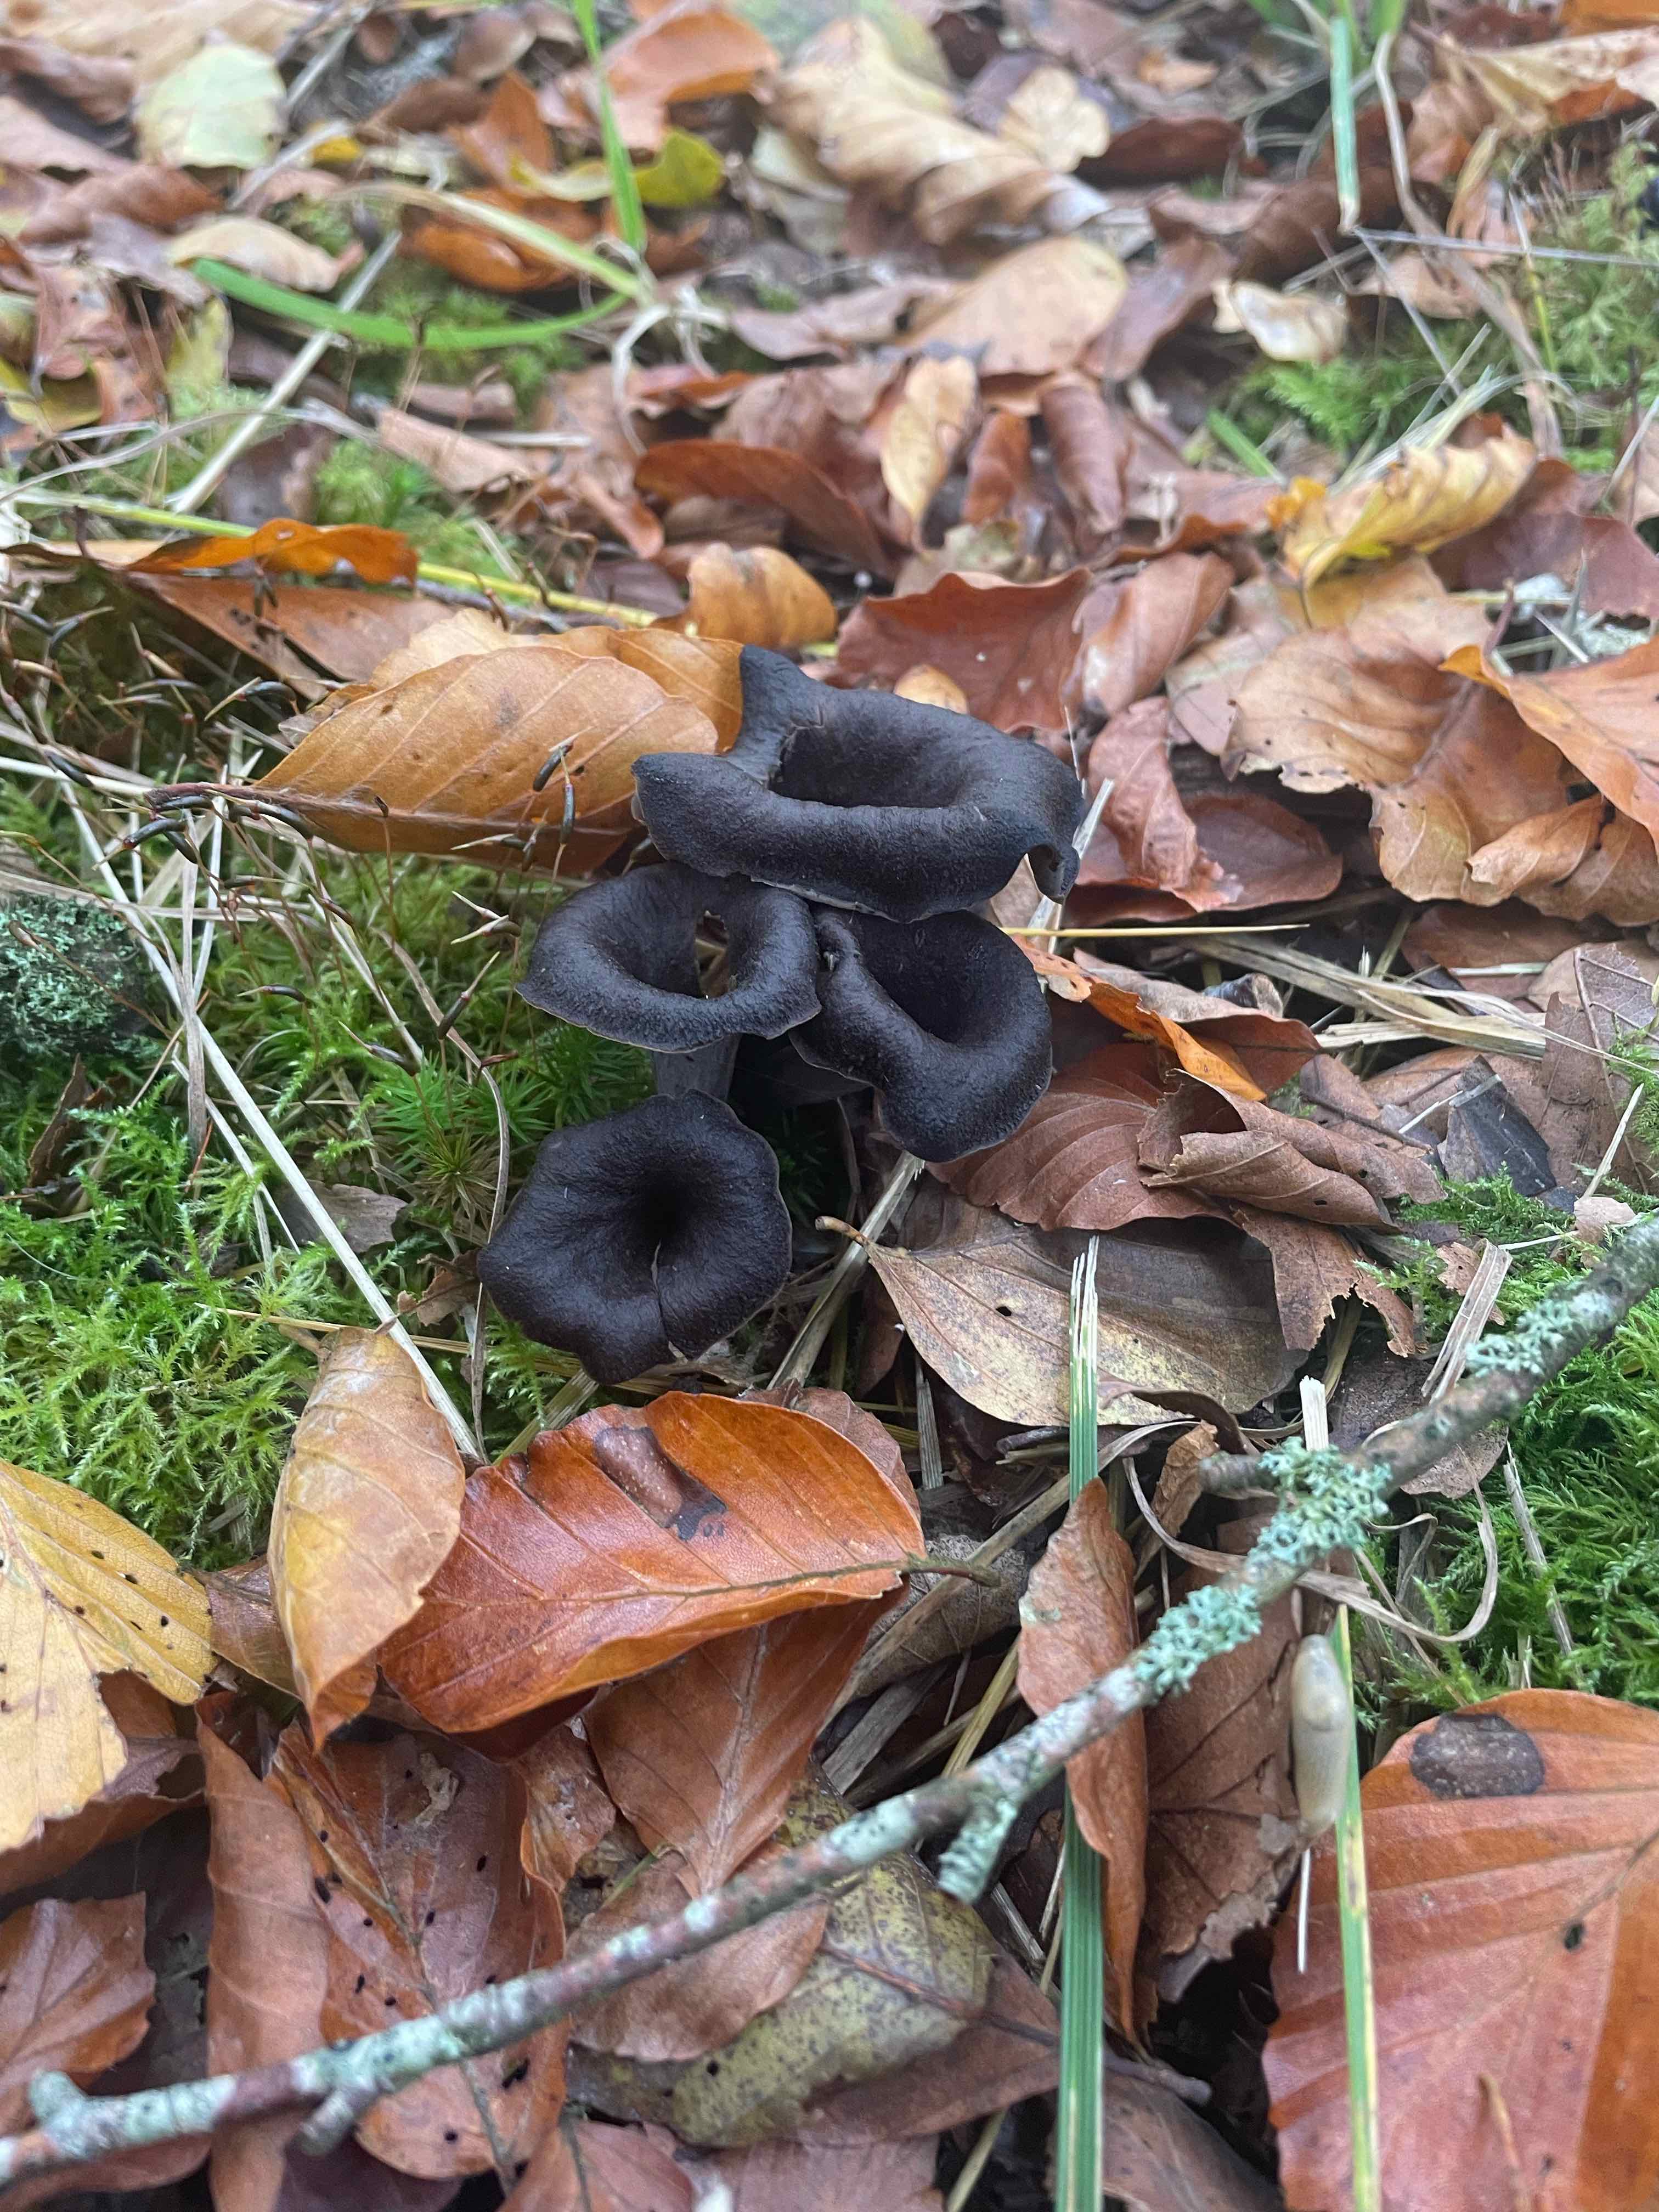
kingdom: Fungi
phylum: Basidiomycota
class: Agaricomycetes
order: Cantharellales
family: Hydnaceae
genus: Craterellus
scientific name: Craterellus cornucopioides
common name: trompetsvamp
